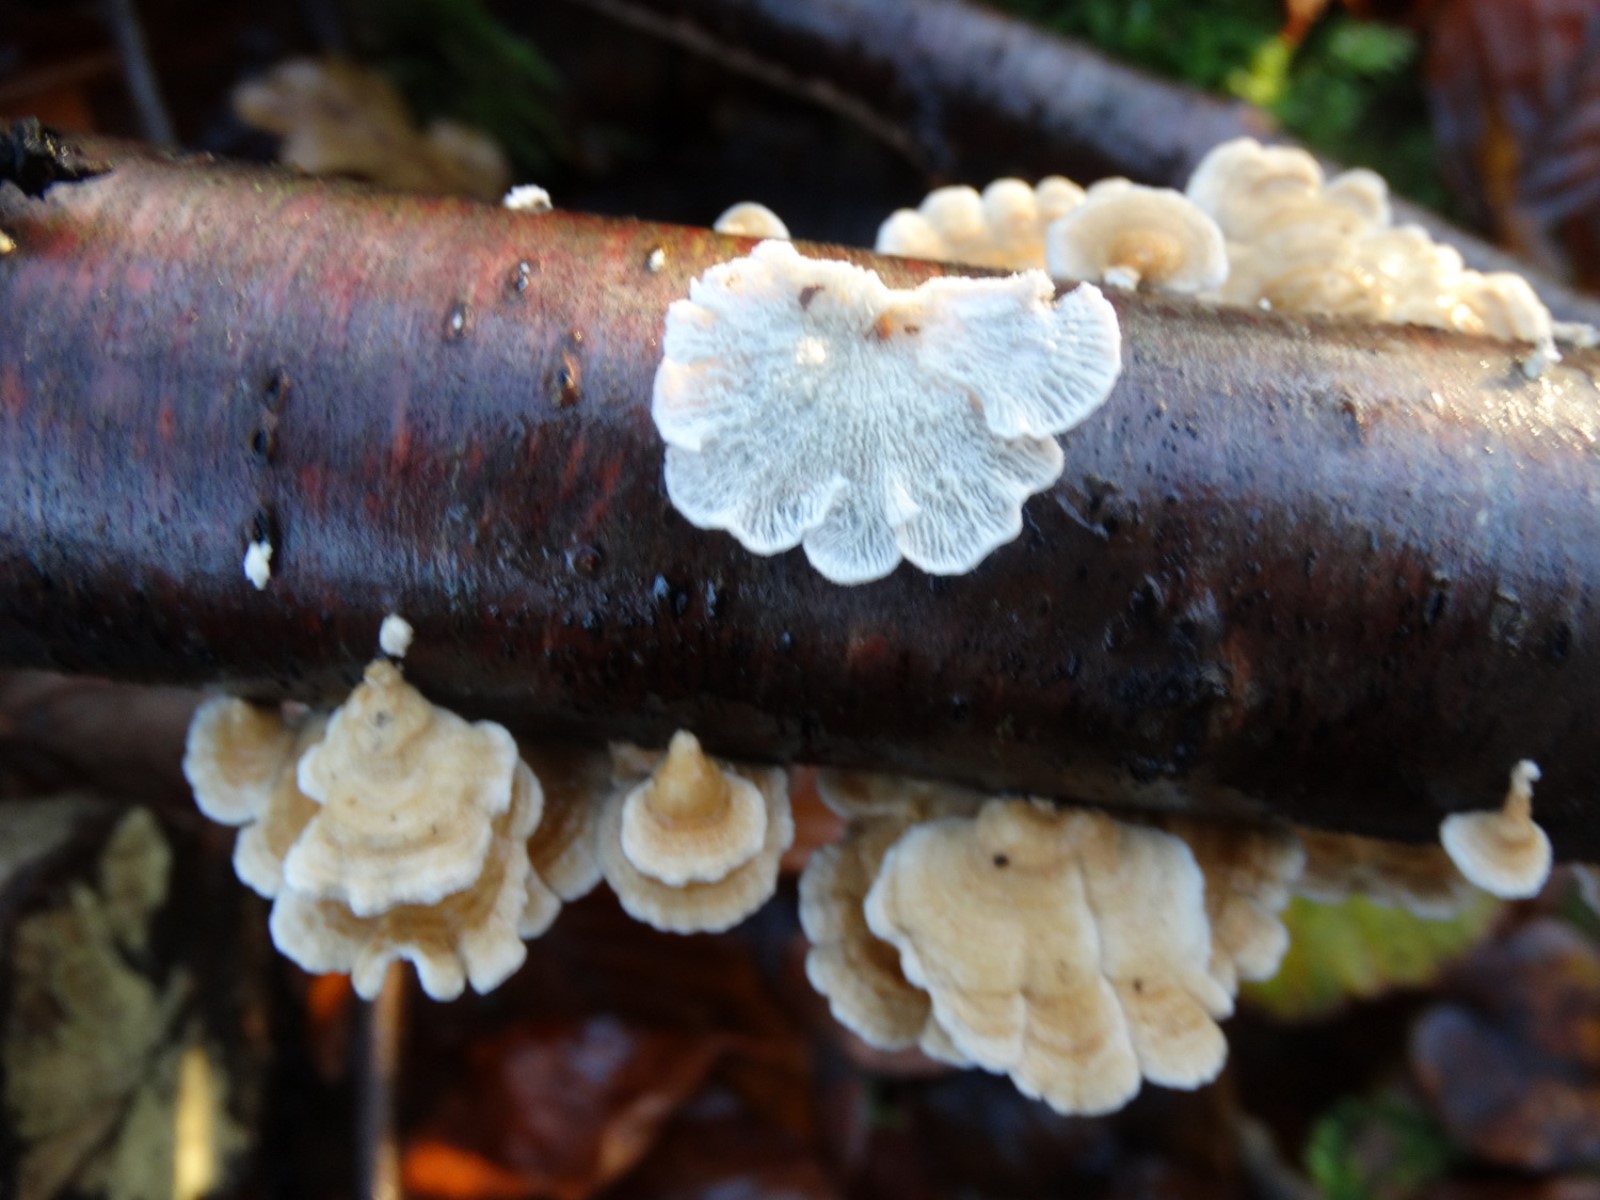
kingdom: Fungi
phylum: Basidiomycota
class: Agaricomycetes
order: Amylocorticiales
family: Amylocorticiaceae
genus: Plicaturopsis
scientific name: Plicaturopsis crispa
